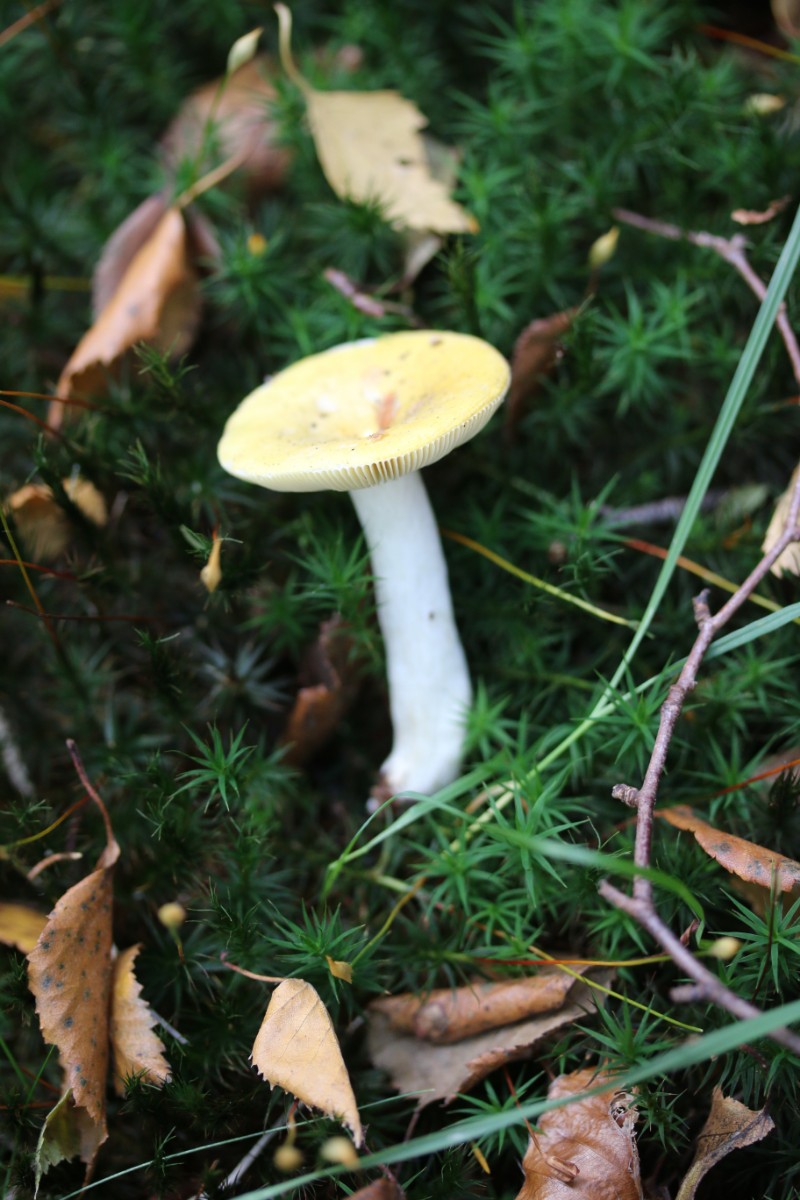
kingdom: Fungi
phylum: Basidiomycota
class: Agaricomycetes
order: Russulales
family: Russulaceae
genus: Russula
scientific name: Russula claroflava
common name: birke-skørhat
